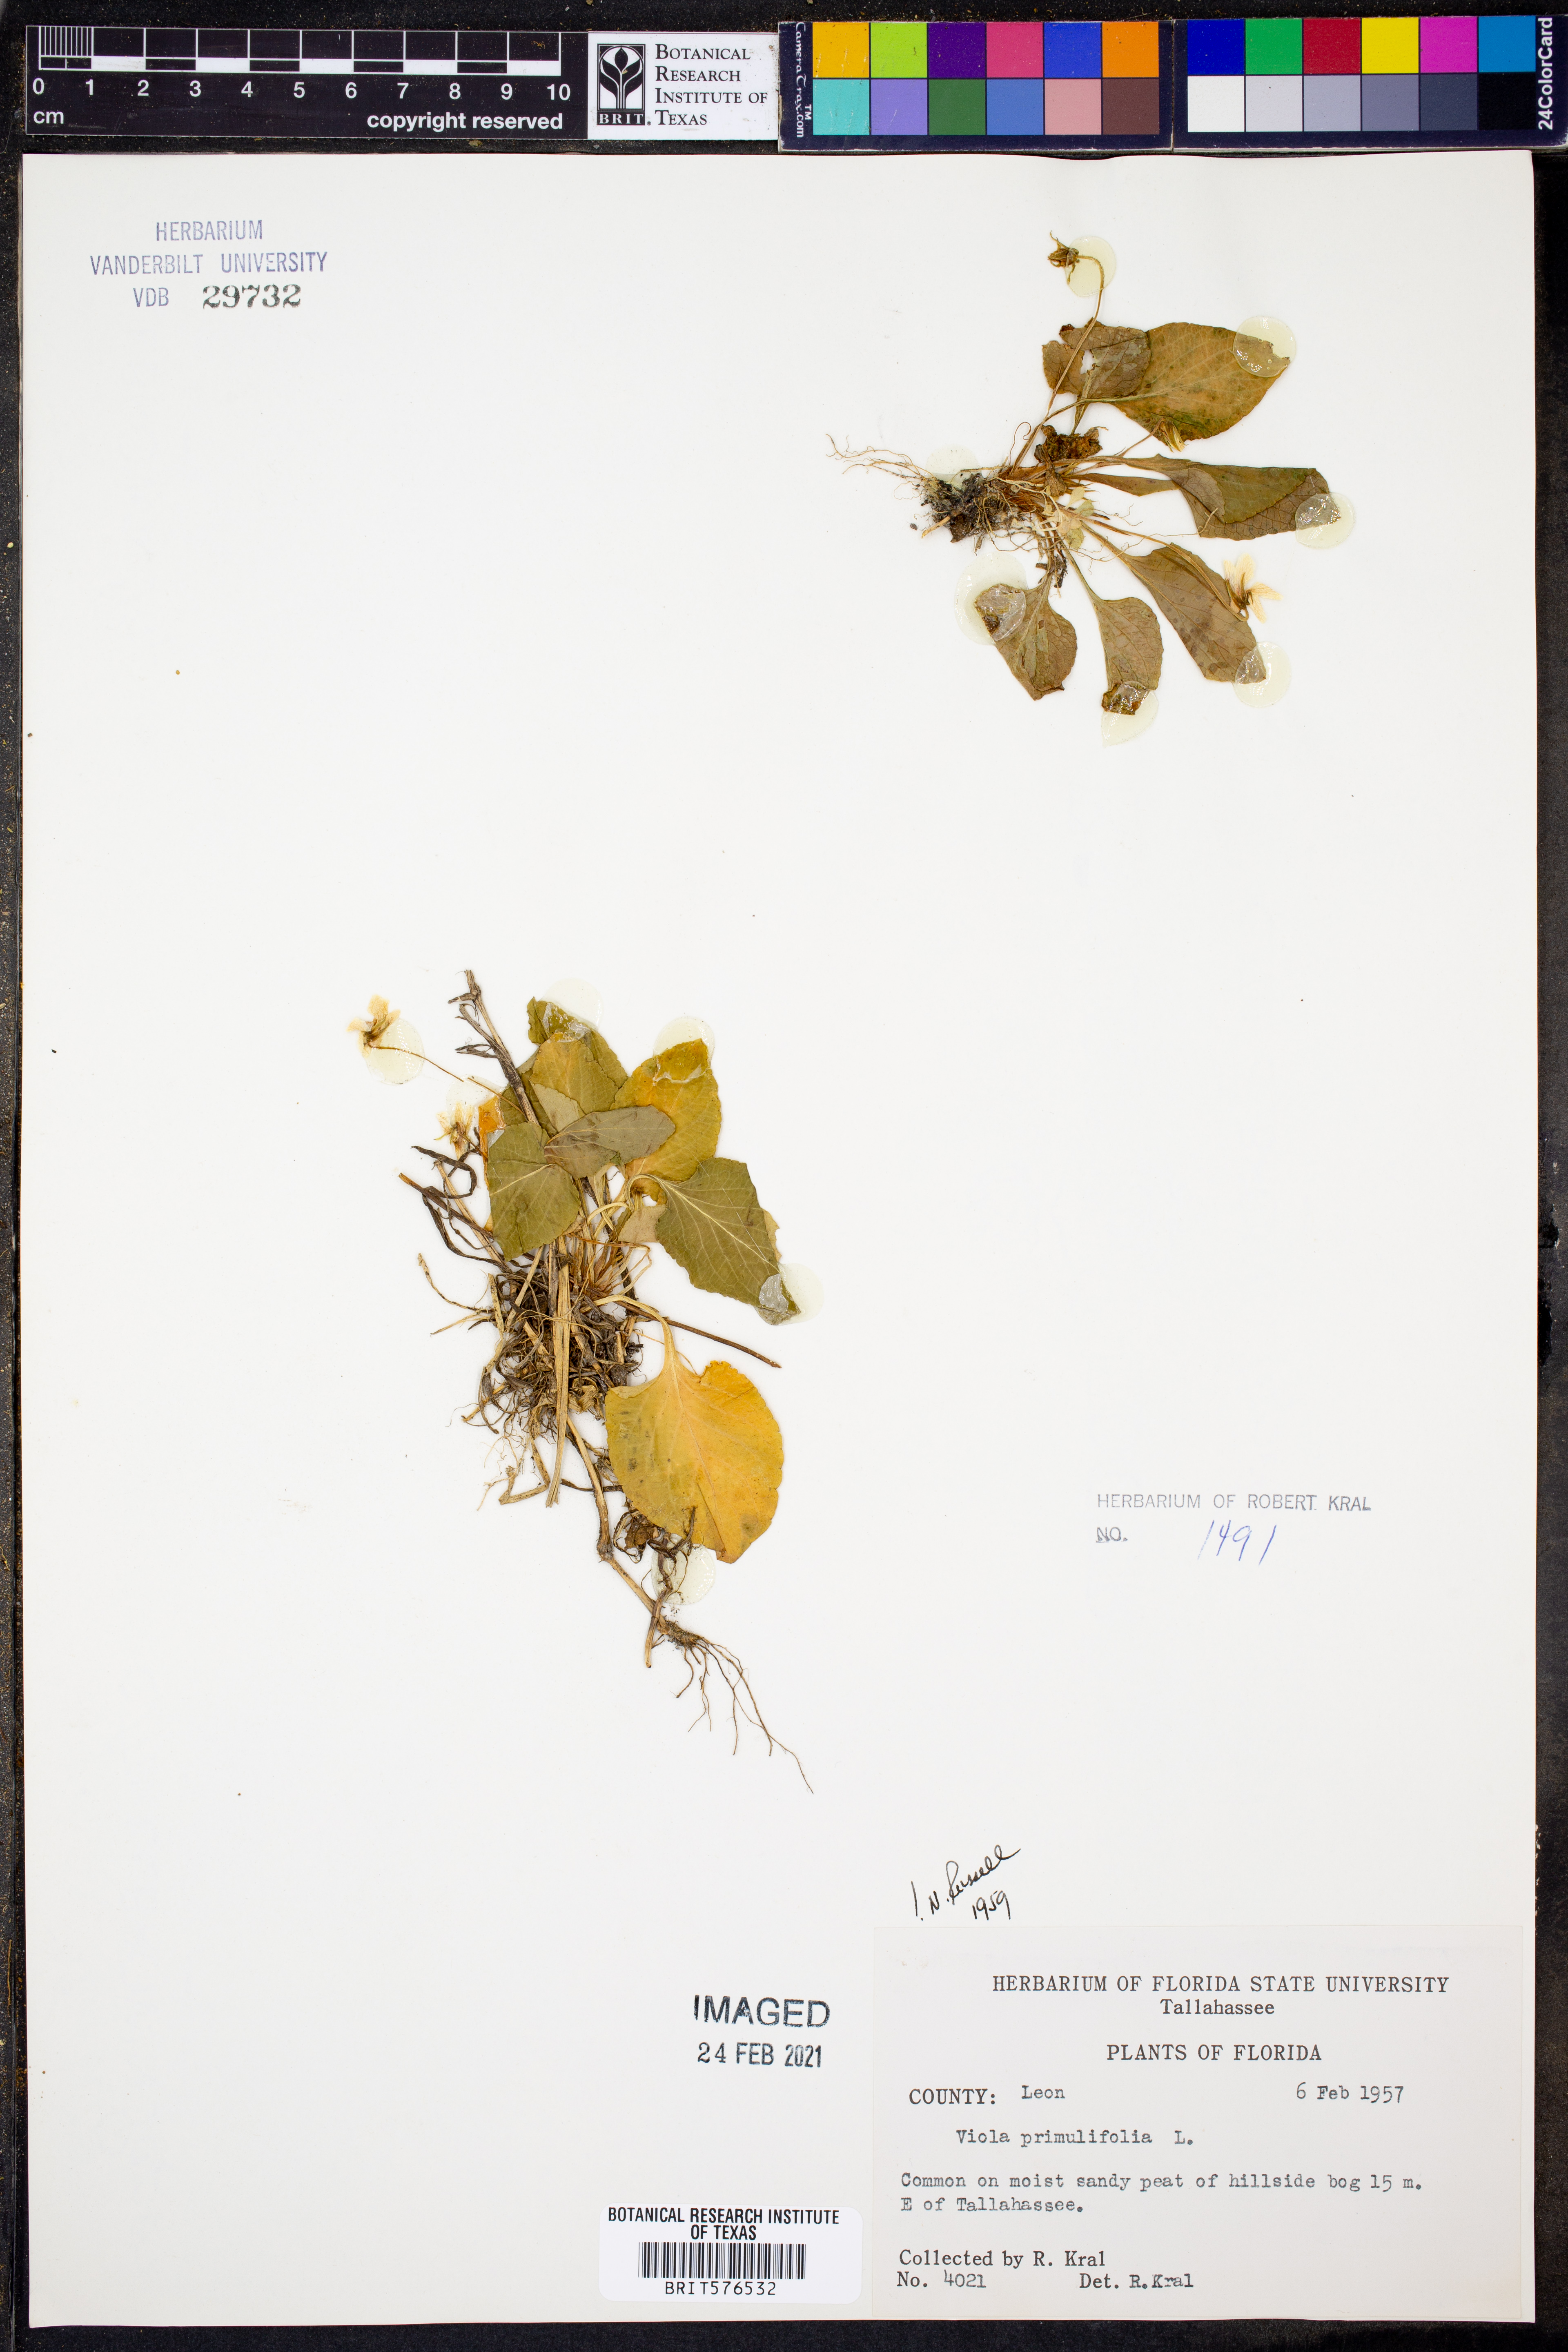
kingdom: Plantae
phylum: Tracheophyta
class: Magnoliopsida
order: Malpighiales
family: Violaceae
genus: Viola
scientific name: Viola primulifolia
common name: Primrose-leaf violet
